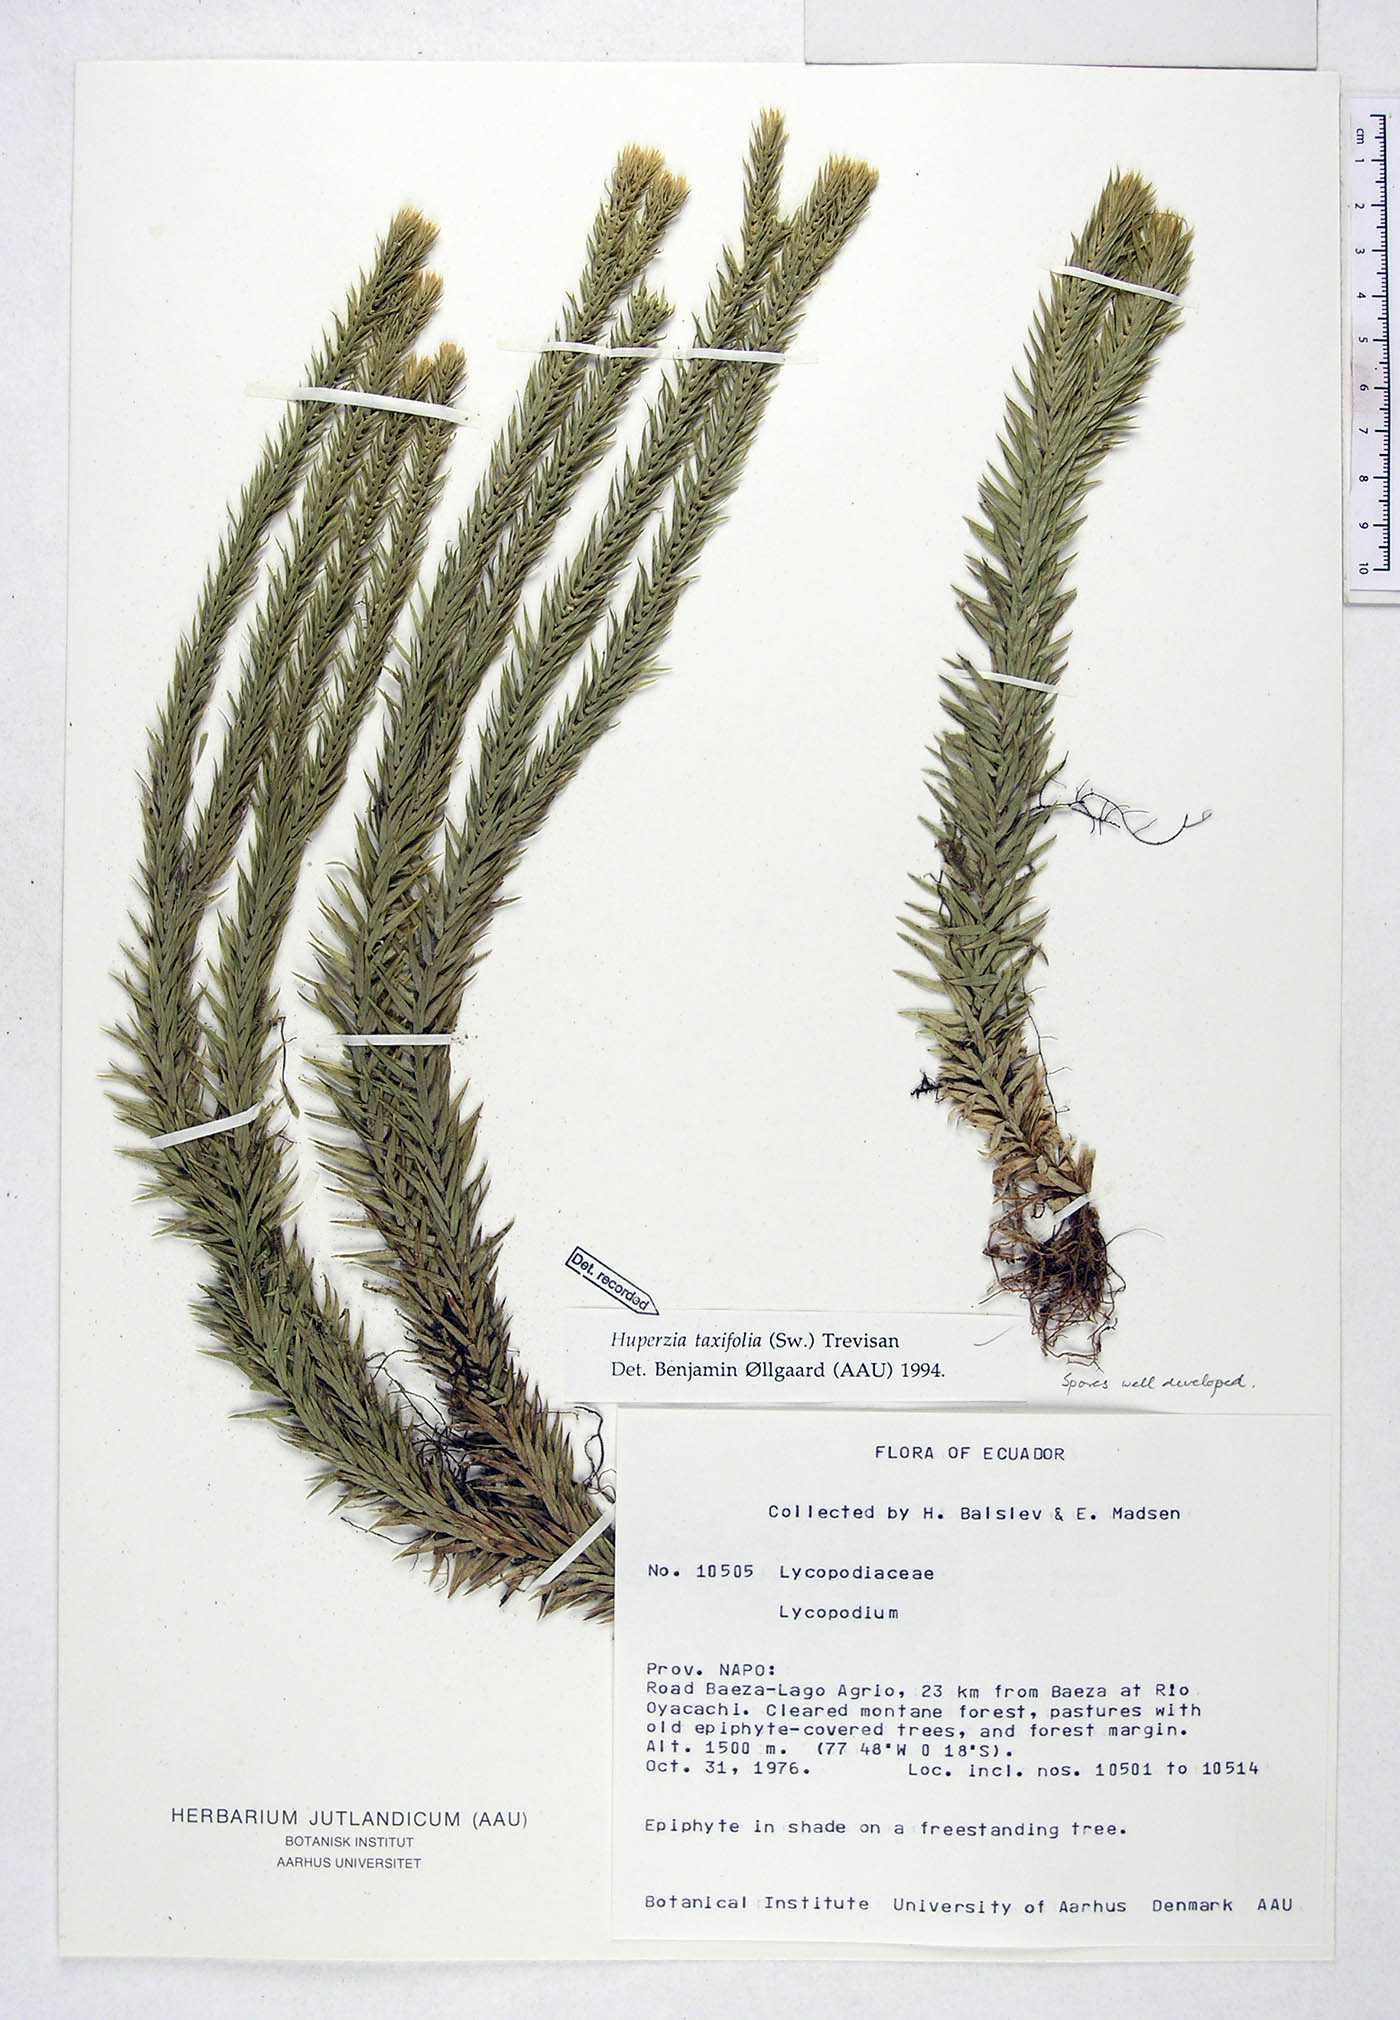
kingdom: Plantae
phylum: Tracheophyta
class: Lycopodiopsida
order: Lycopodiales
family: Lycopodiaceae
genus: Phlegmariurus
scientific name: Phlegmariurus taxifolius
